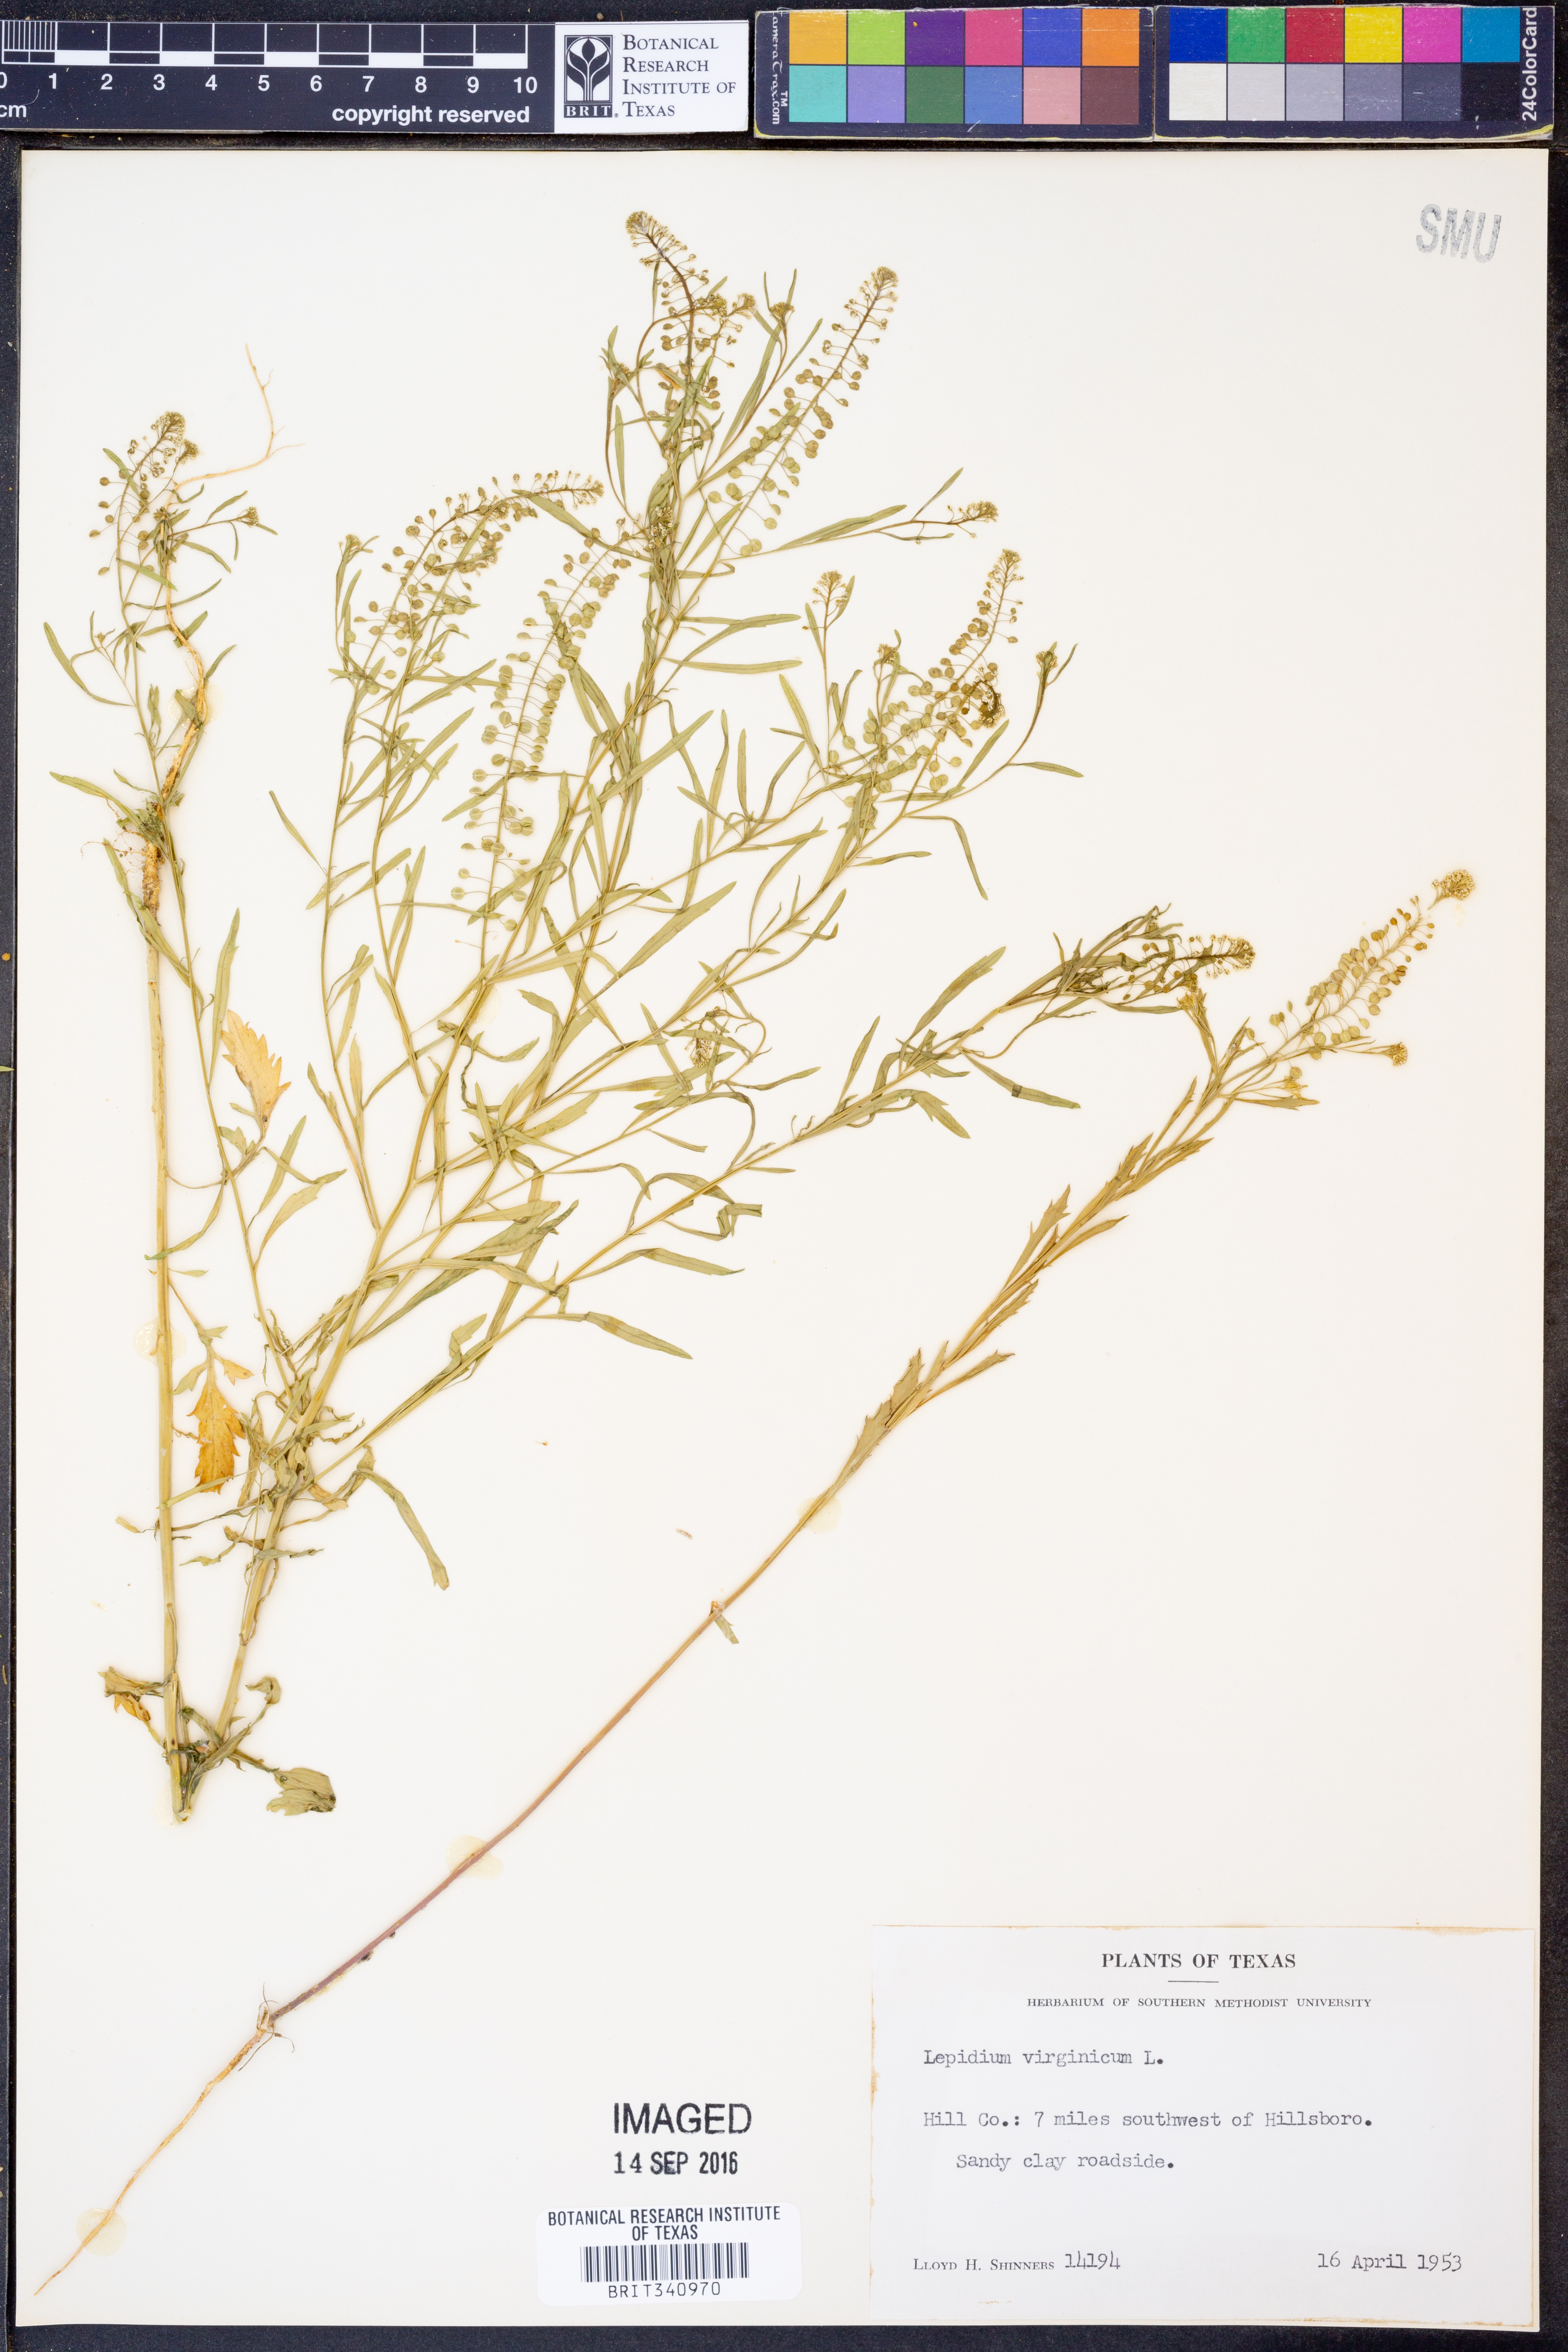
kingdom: Plantae
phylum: Tracheophyta
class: Magnoliopsida
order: Brassicales
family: Brassicaceae
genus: Lepidium
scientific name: Lepidium virginicum
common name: Least pepperwort
